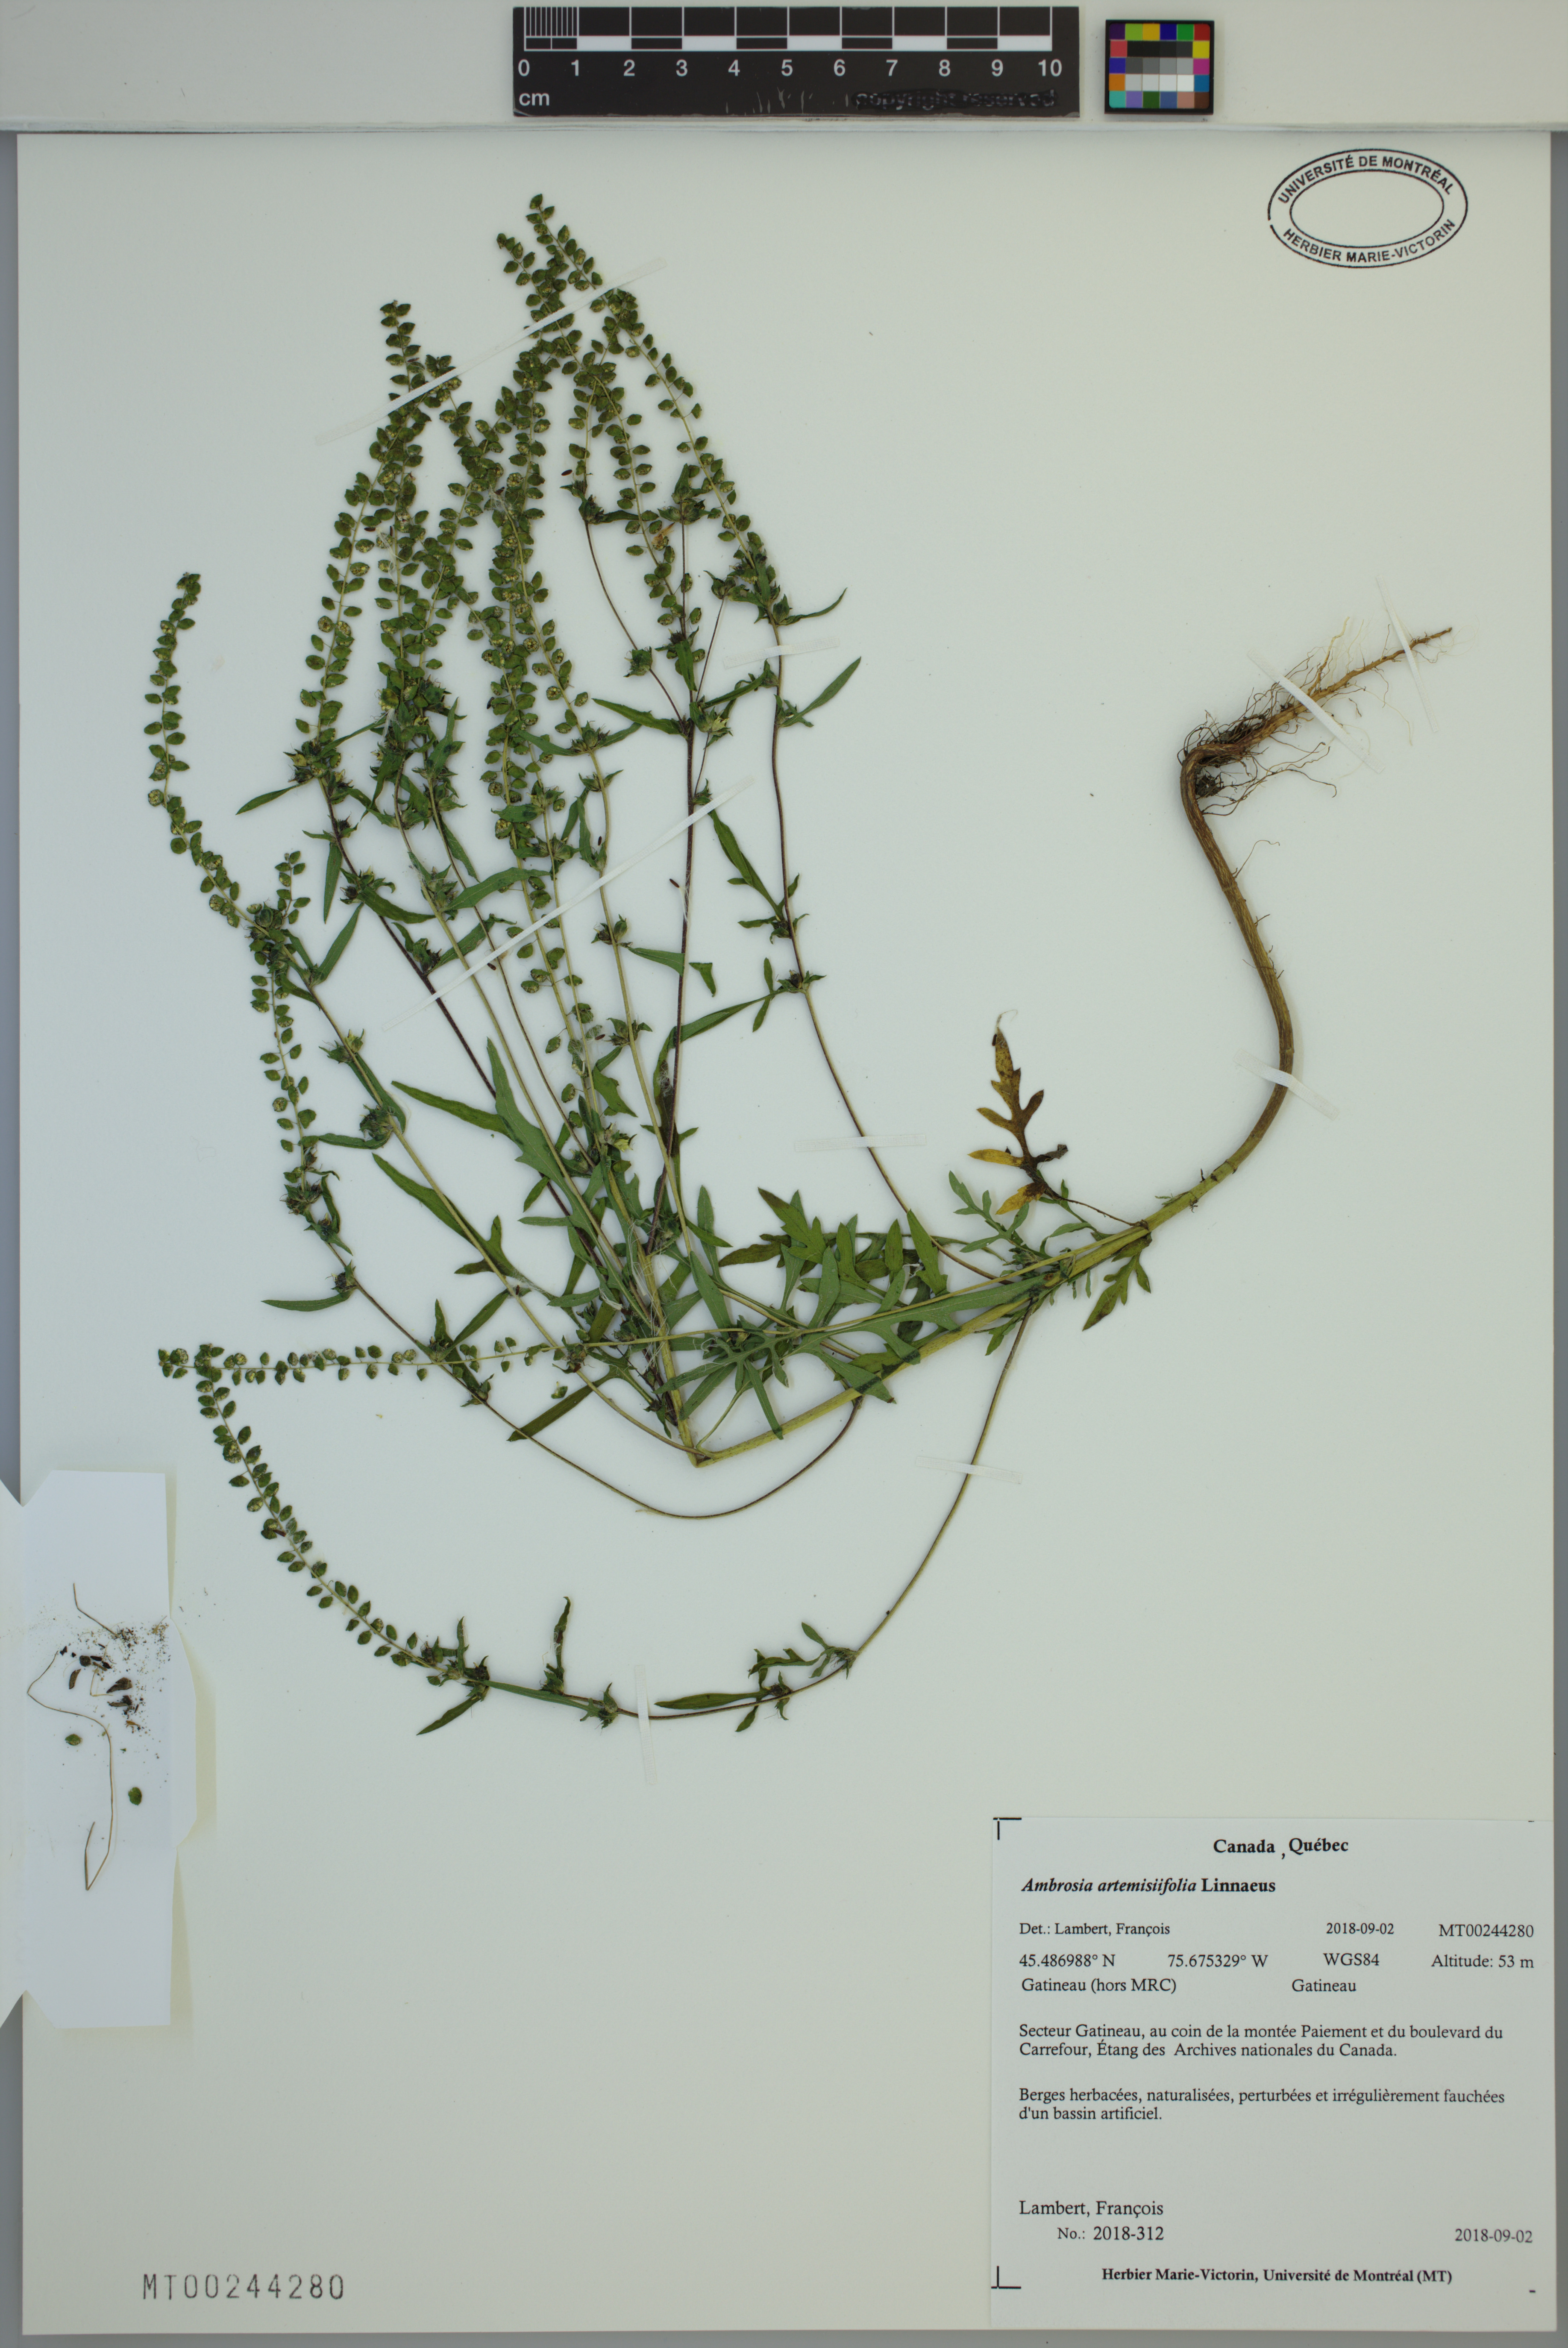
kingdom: Plantae
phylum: Tracheophyta
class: Magnoliopsida
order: Asterales
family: Asteraceae
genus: Ambrosia
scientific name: Ambrosia artemisiifolia
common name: Annual ragweed
